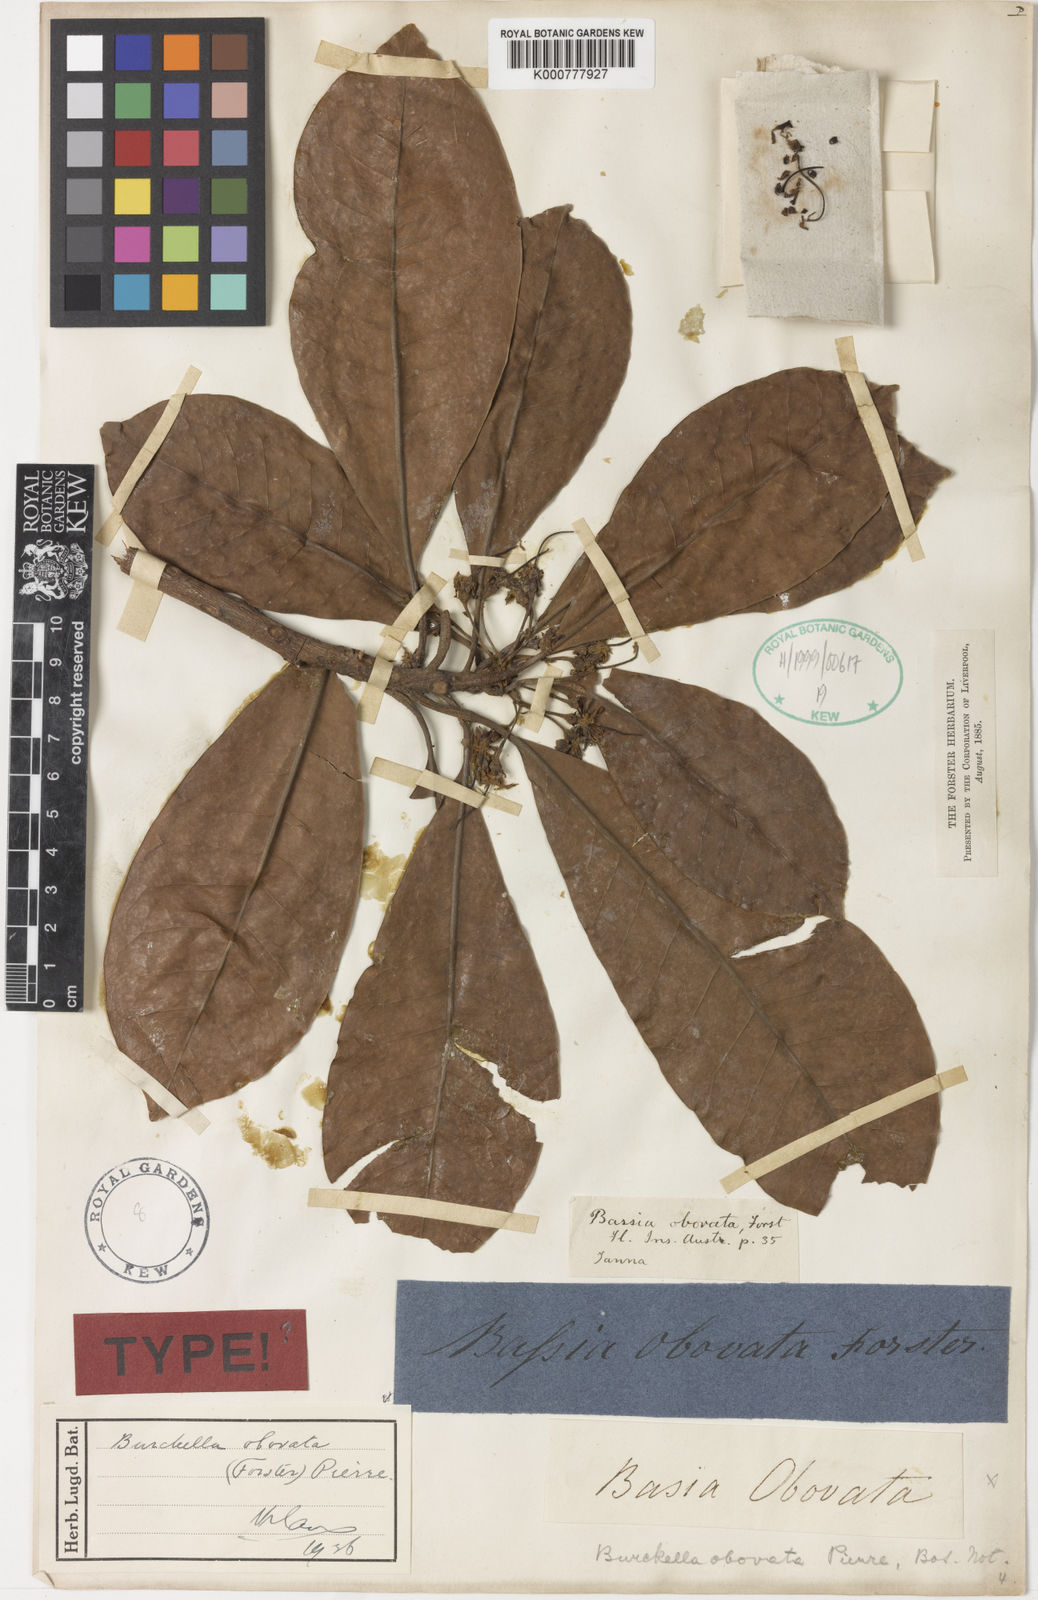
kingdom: Plantae
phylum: Tracheophyta
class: Magnoliopsida
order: Ericales
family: Sapotaceae
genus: Burckella
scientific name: Burckella obovata
